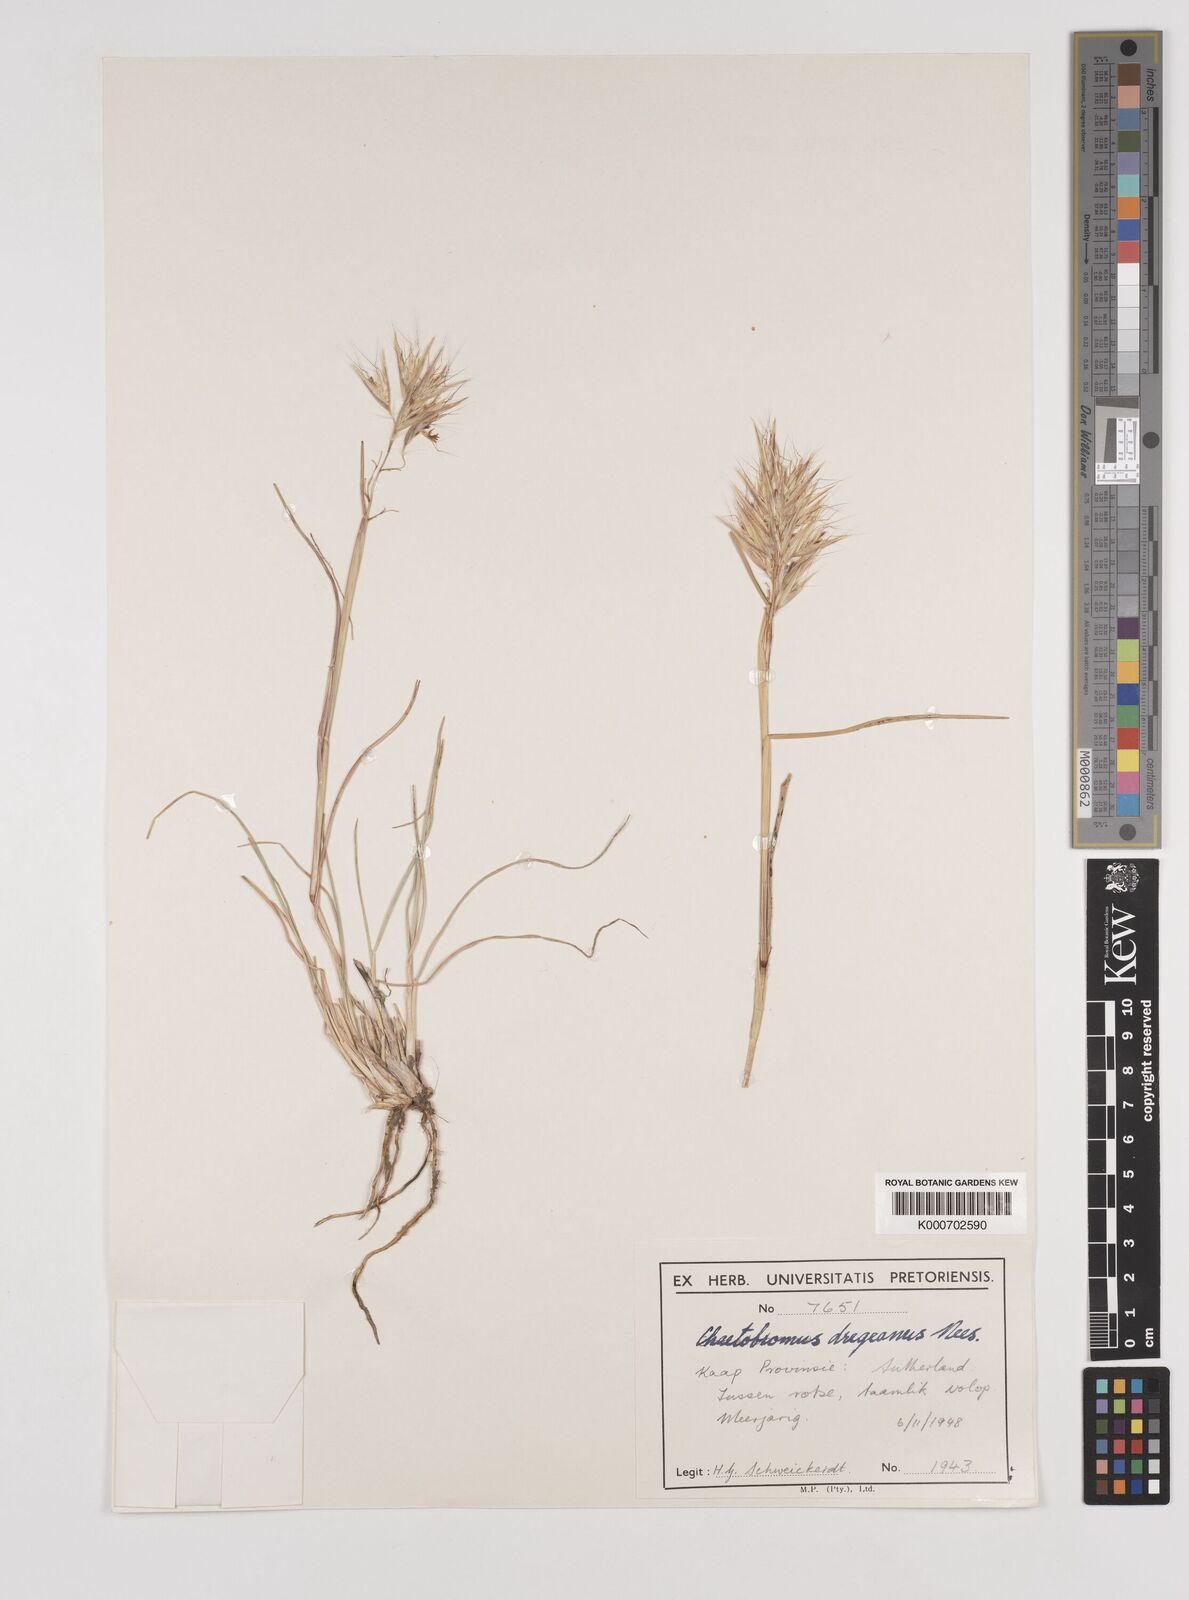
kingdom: Plantae
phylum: Tracheophyta
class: Liliopsida
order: Poales
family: Poaceae
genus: Chaetobromus
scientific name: Chaetobromus involucratus
